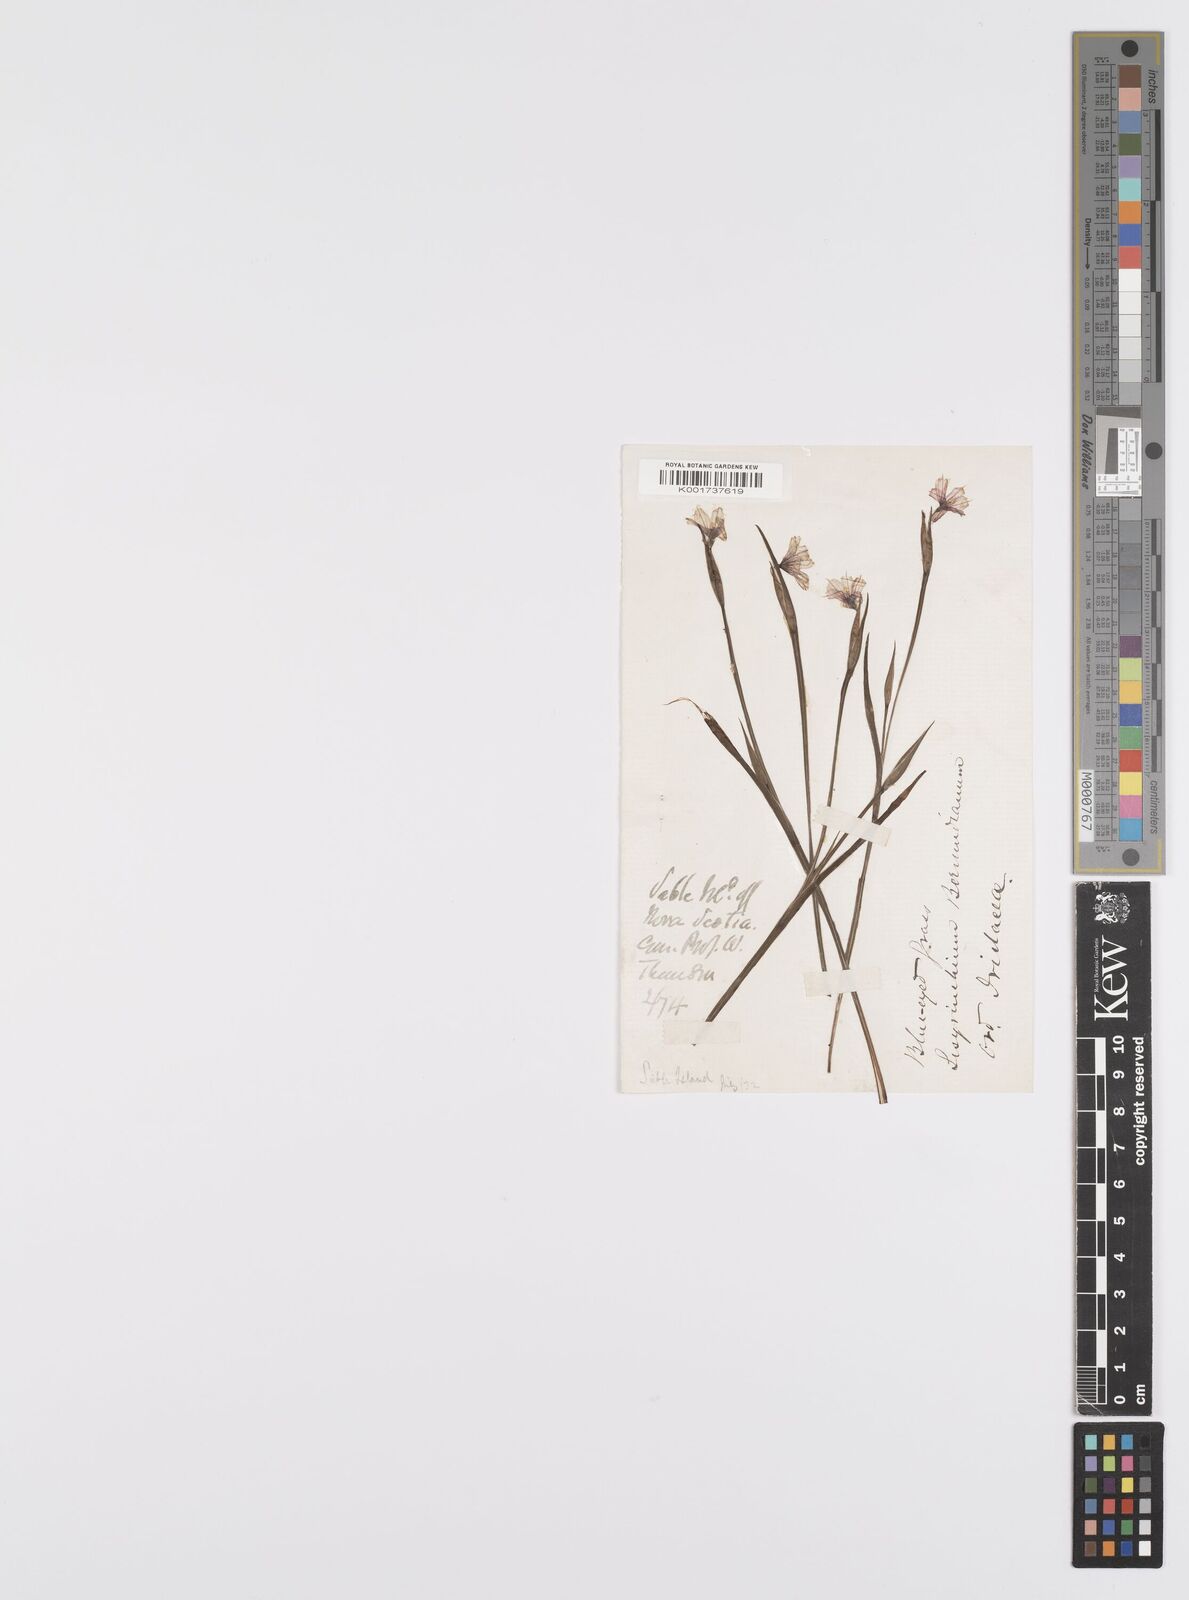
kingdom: Plantae
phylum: Tracheophyta
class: Liliopsida
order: Asparagales
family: Iridaceae
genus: Sisyrinchium
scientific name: Sisyrinchium bermudiana
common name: Blue-eyed-grass
